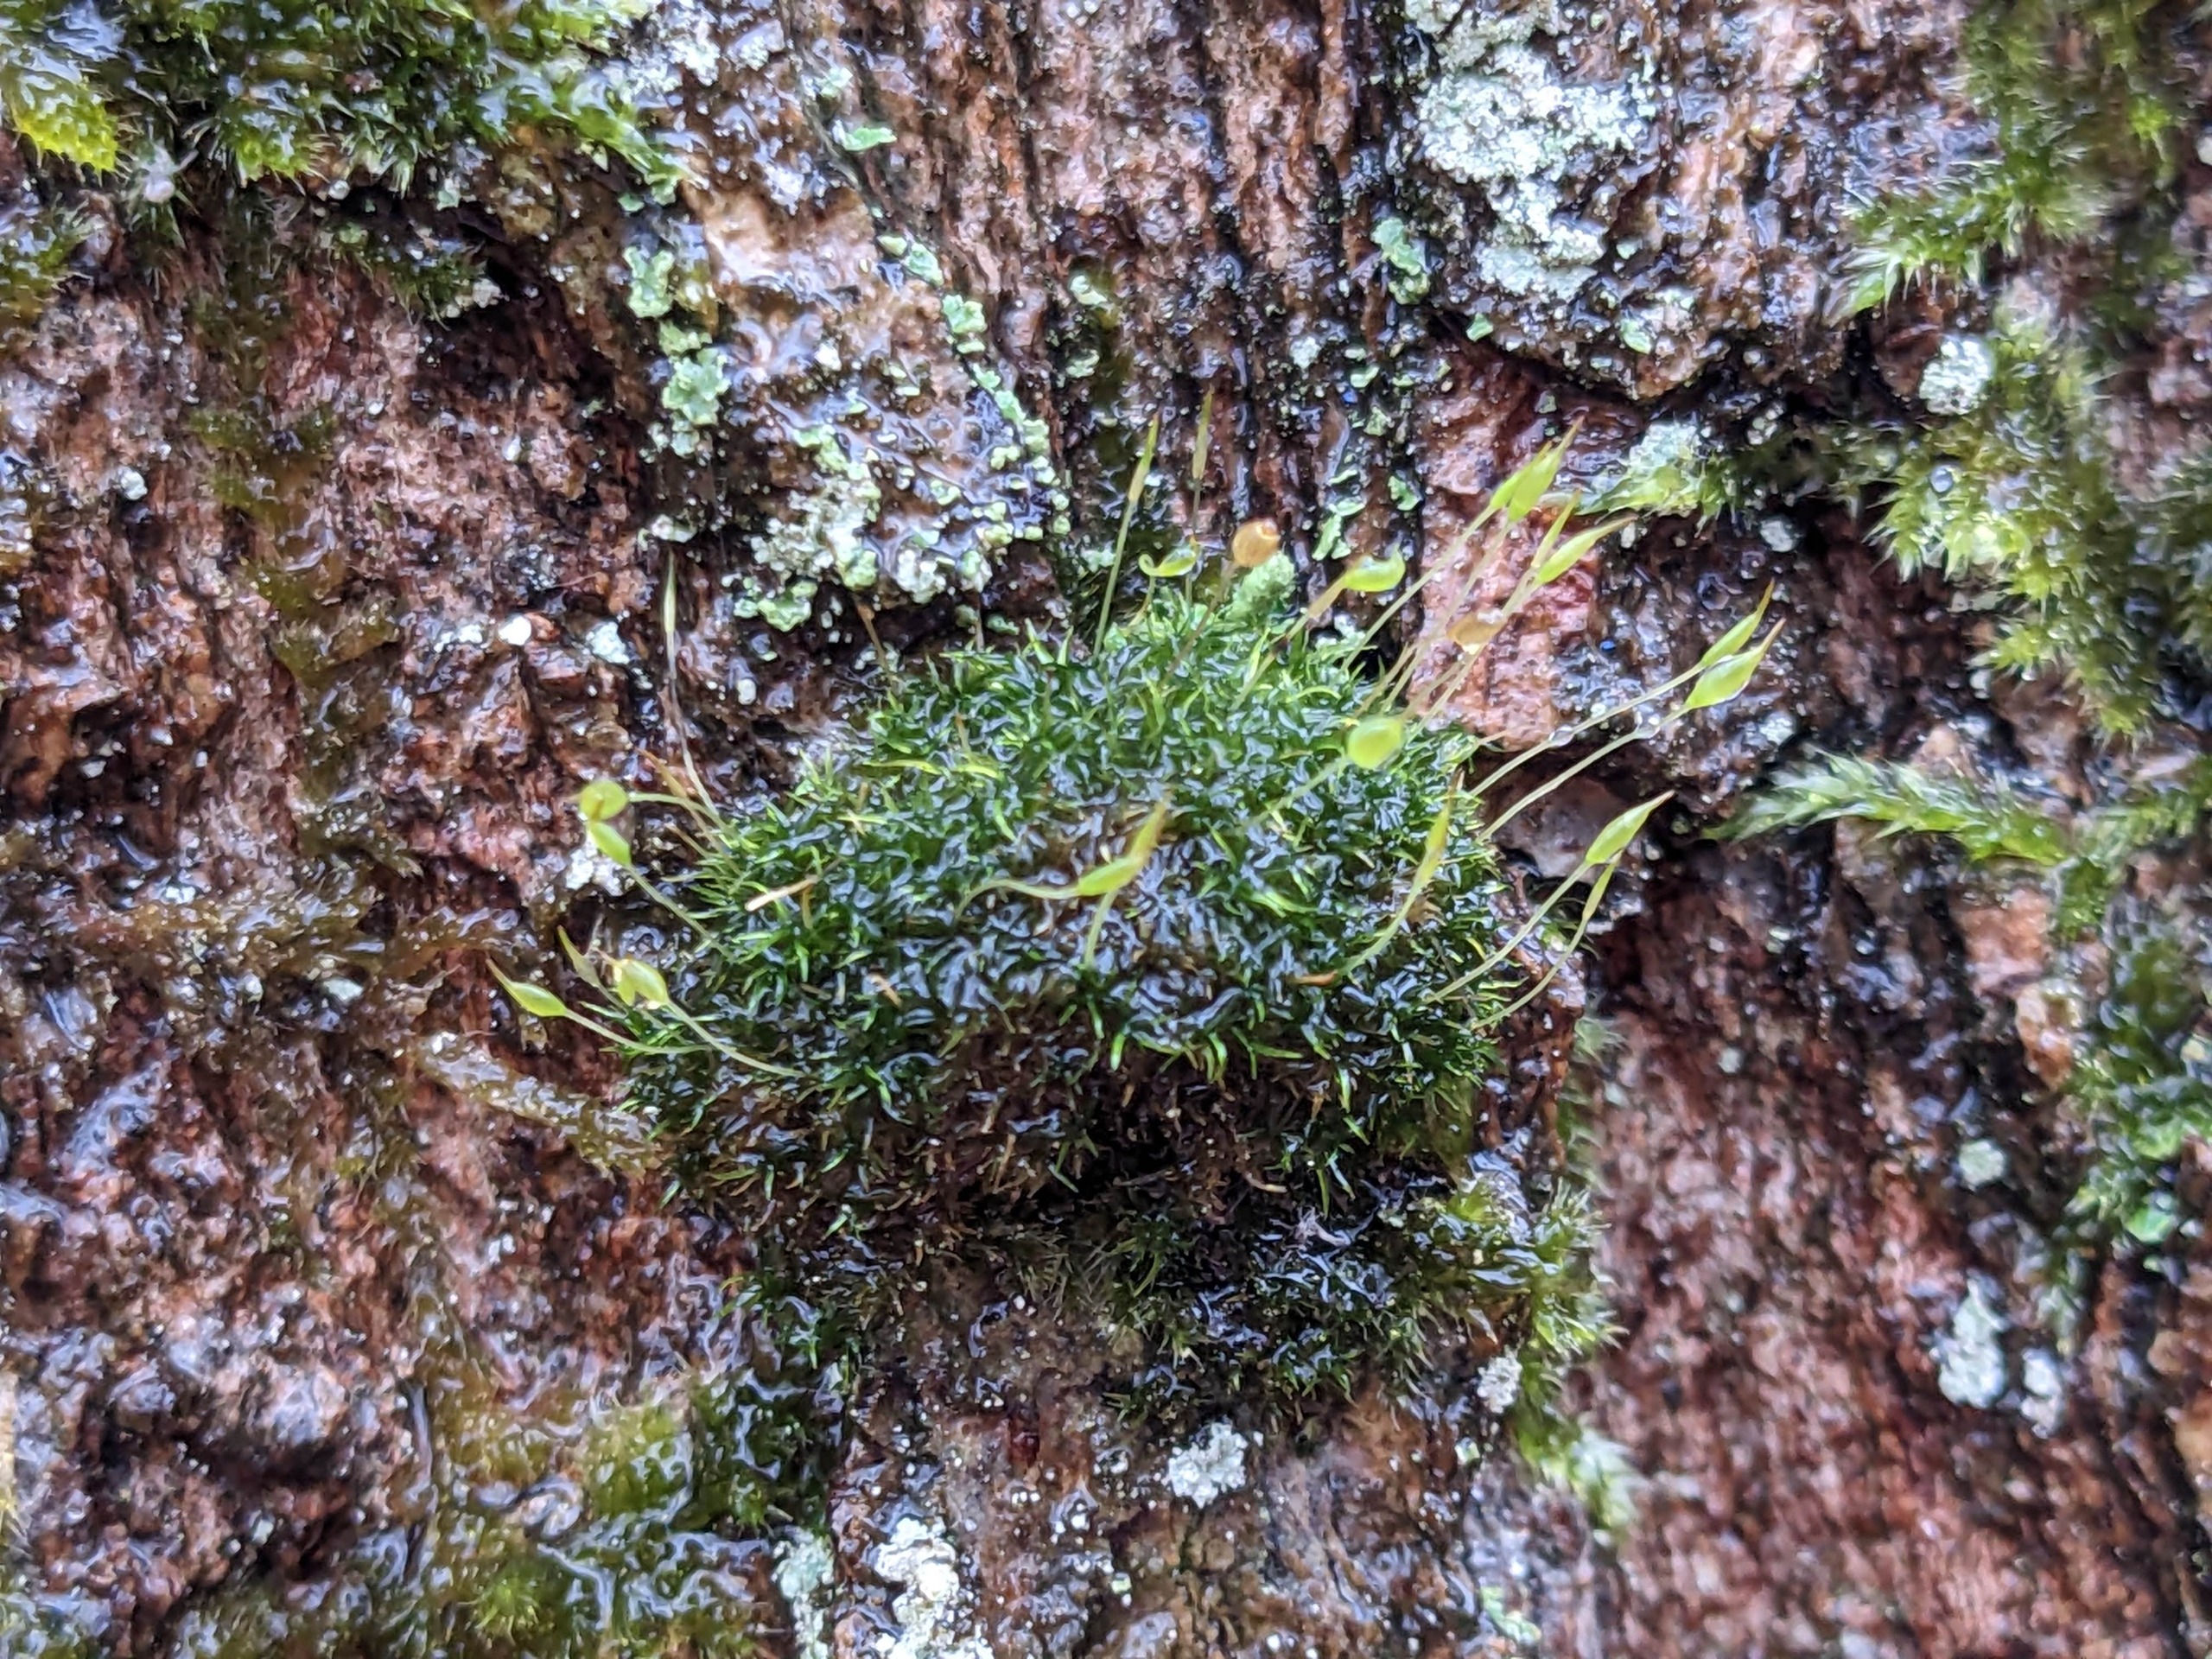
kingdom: Plantae
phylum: Bryophyta
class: Bryopsida
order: Dicranales
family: Rhabdoweisiaceae
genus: Dicranoweisia
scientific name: Dicranoweisia cirrata
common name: Almindelig krøltuemos
